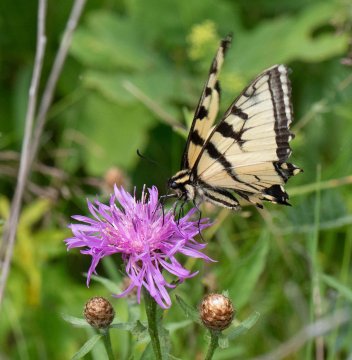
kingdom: Animalia
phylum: Arthropoda
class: Insecta
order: Lepidoptera
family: Papilionidae
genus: Pterourus
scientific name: Pterourus
